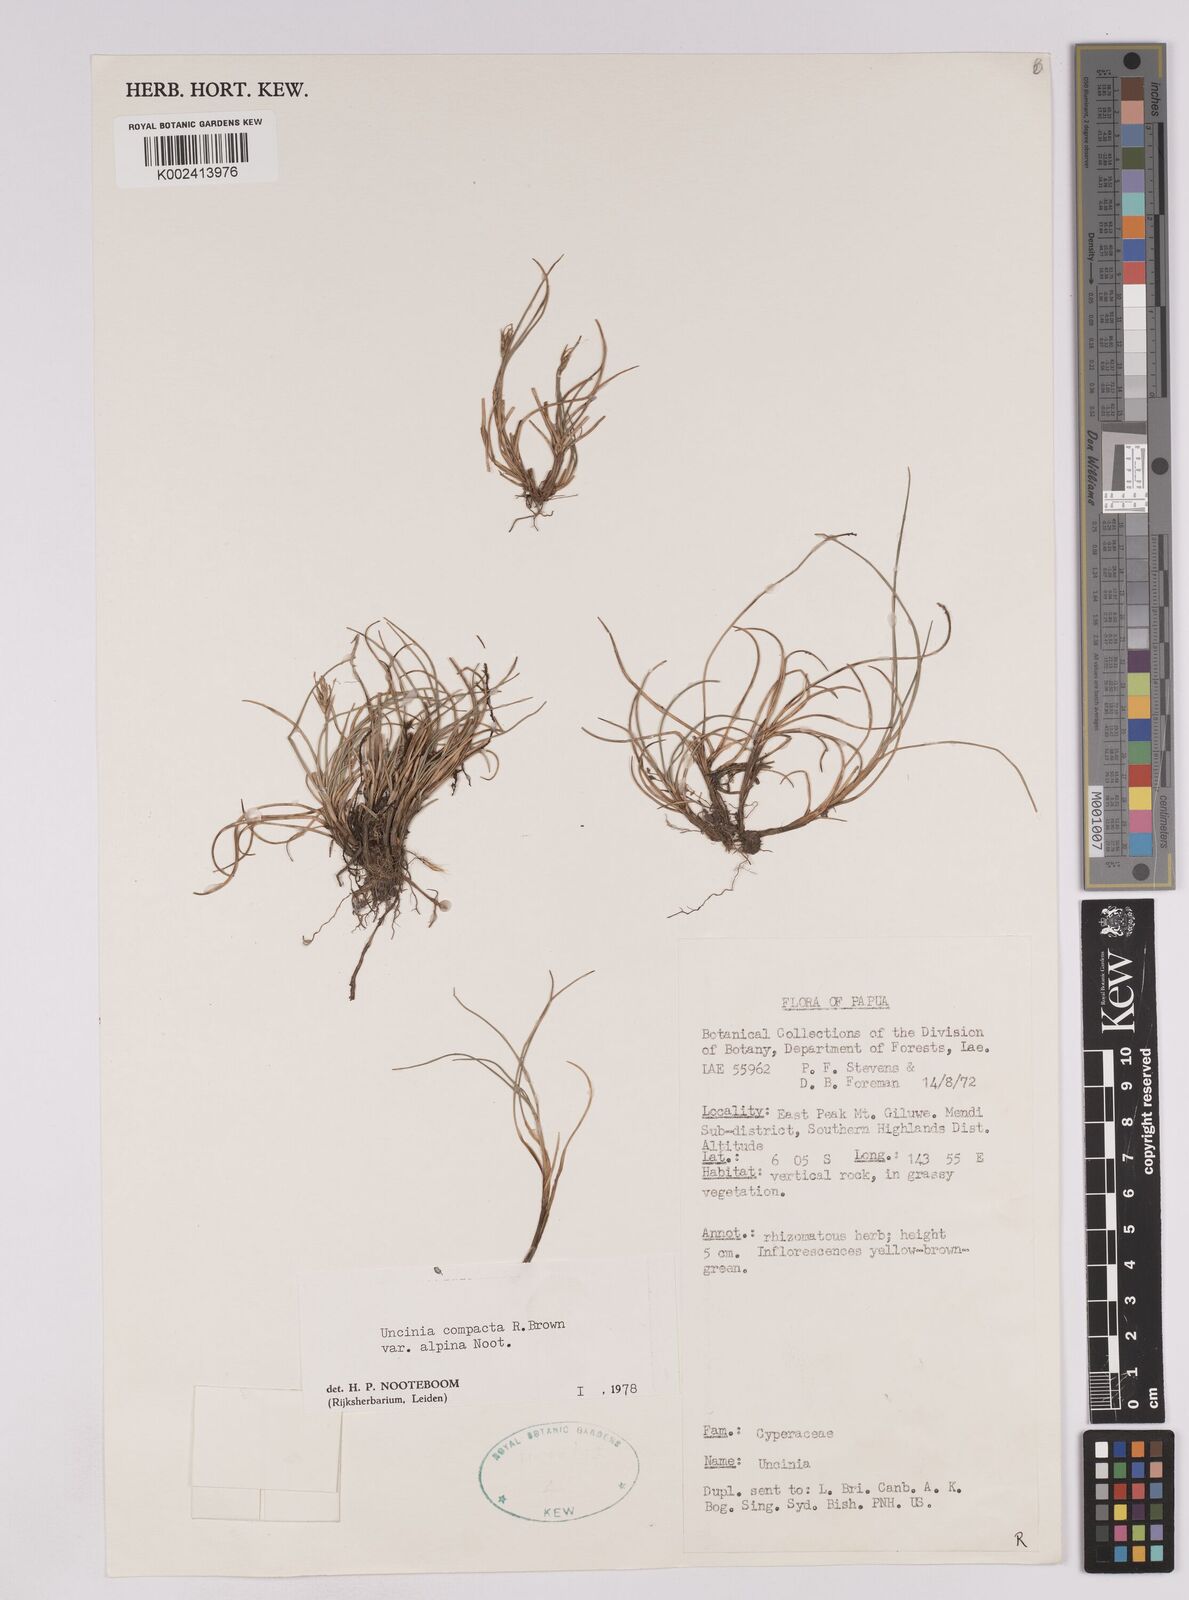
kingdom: Plantae
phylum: Tracheophyta
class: Liliopsida
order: Poales
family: Cyperaceae
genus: Carex
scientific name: Carex austrocompacta
